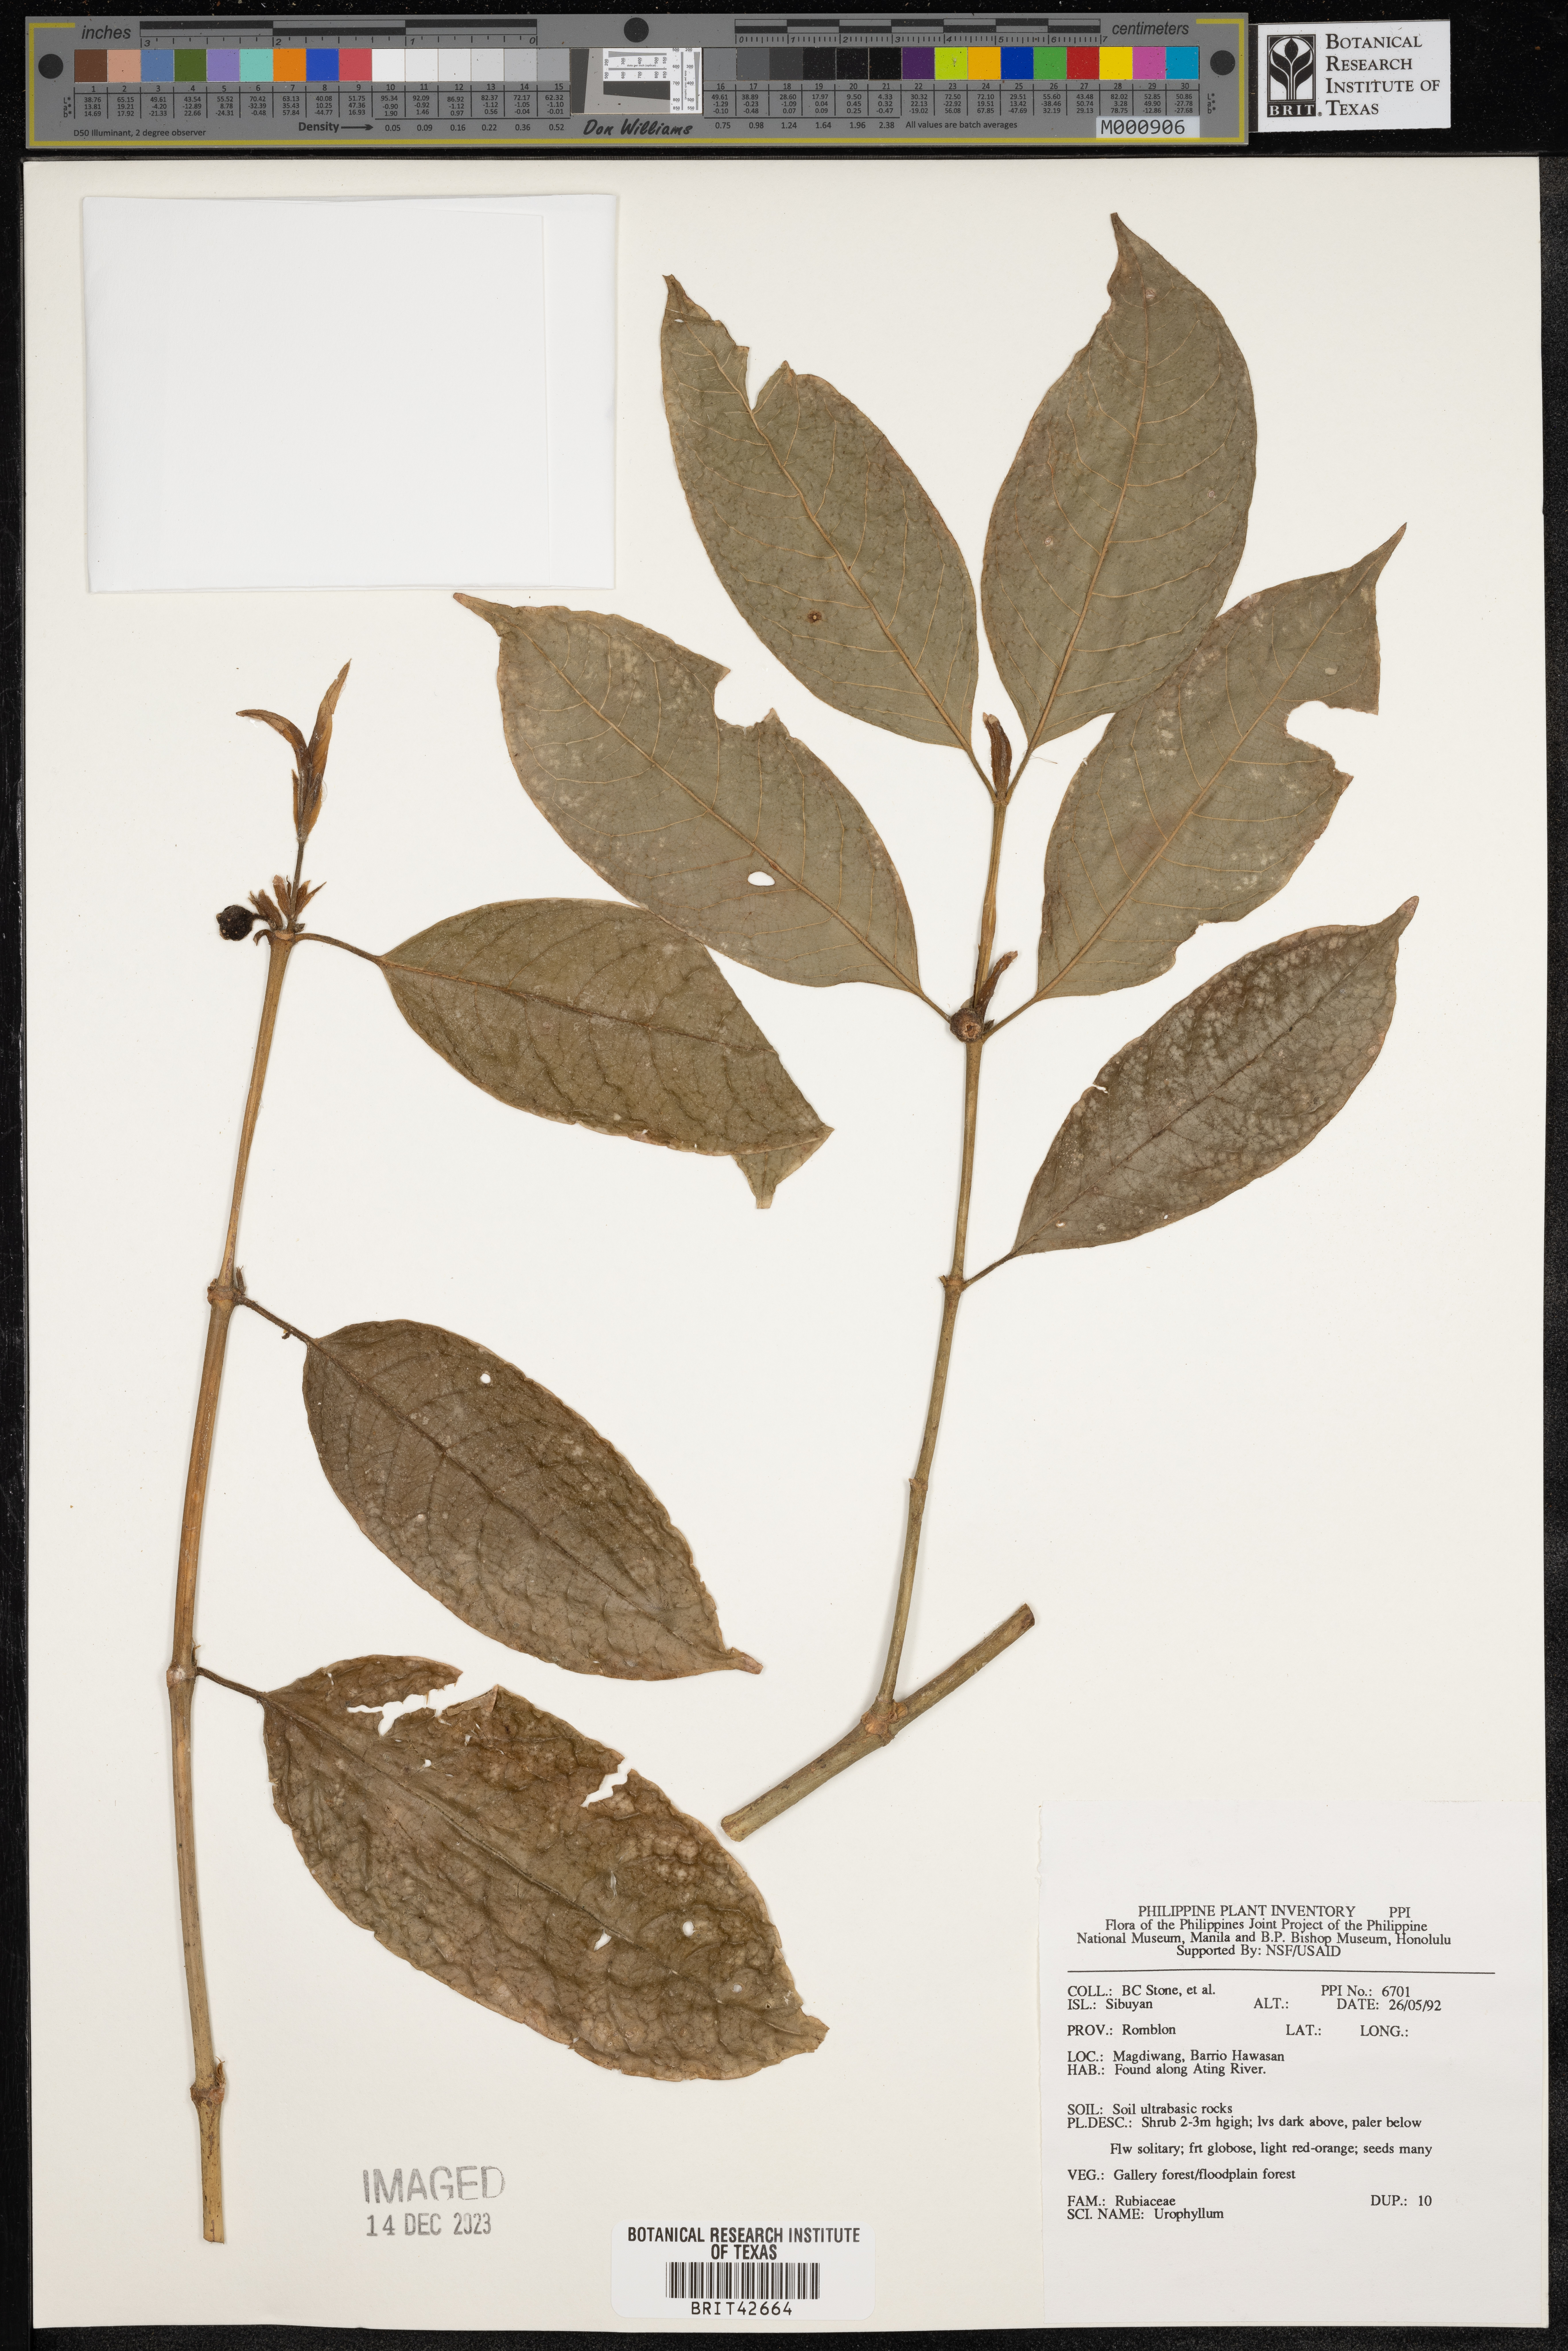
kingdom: Plantae
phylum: Tracheophyta
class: Magnoliopsida
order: Gentianales
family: Rubiaceae
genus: Urophyllum
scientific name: Urophyllum
